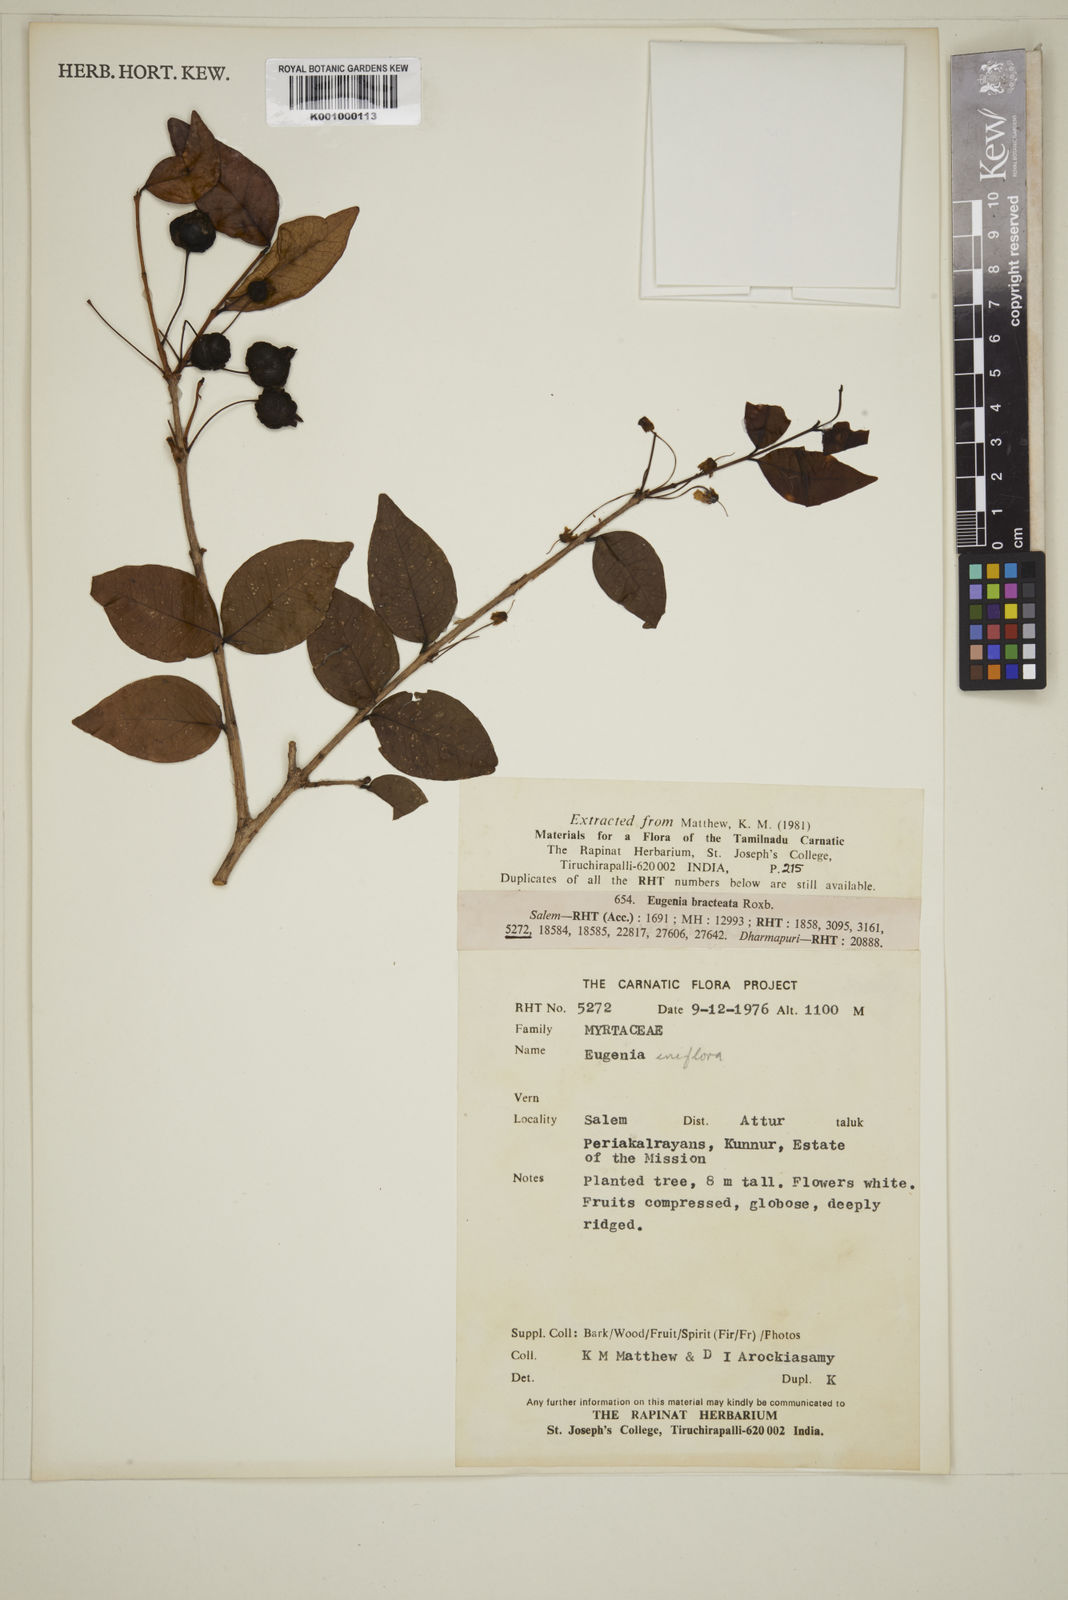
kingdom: Plantae
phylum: Tracheophyta
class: Magnoliopsida
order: Myrtales
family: Myrtaceae
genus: Eugenia
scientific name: Eugenia uniflora
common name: Surinam cherry
